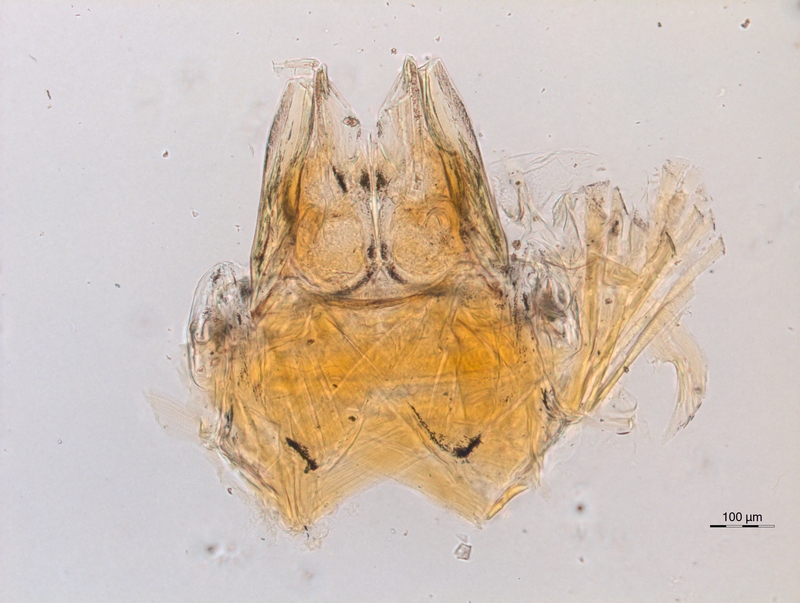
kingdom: Animalia
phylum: Arthropoda
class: Diplopoda
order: Chordeumatida
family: Anthroleucosomatidae
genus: Anamastigona
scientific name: Anamastigona hispidula
